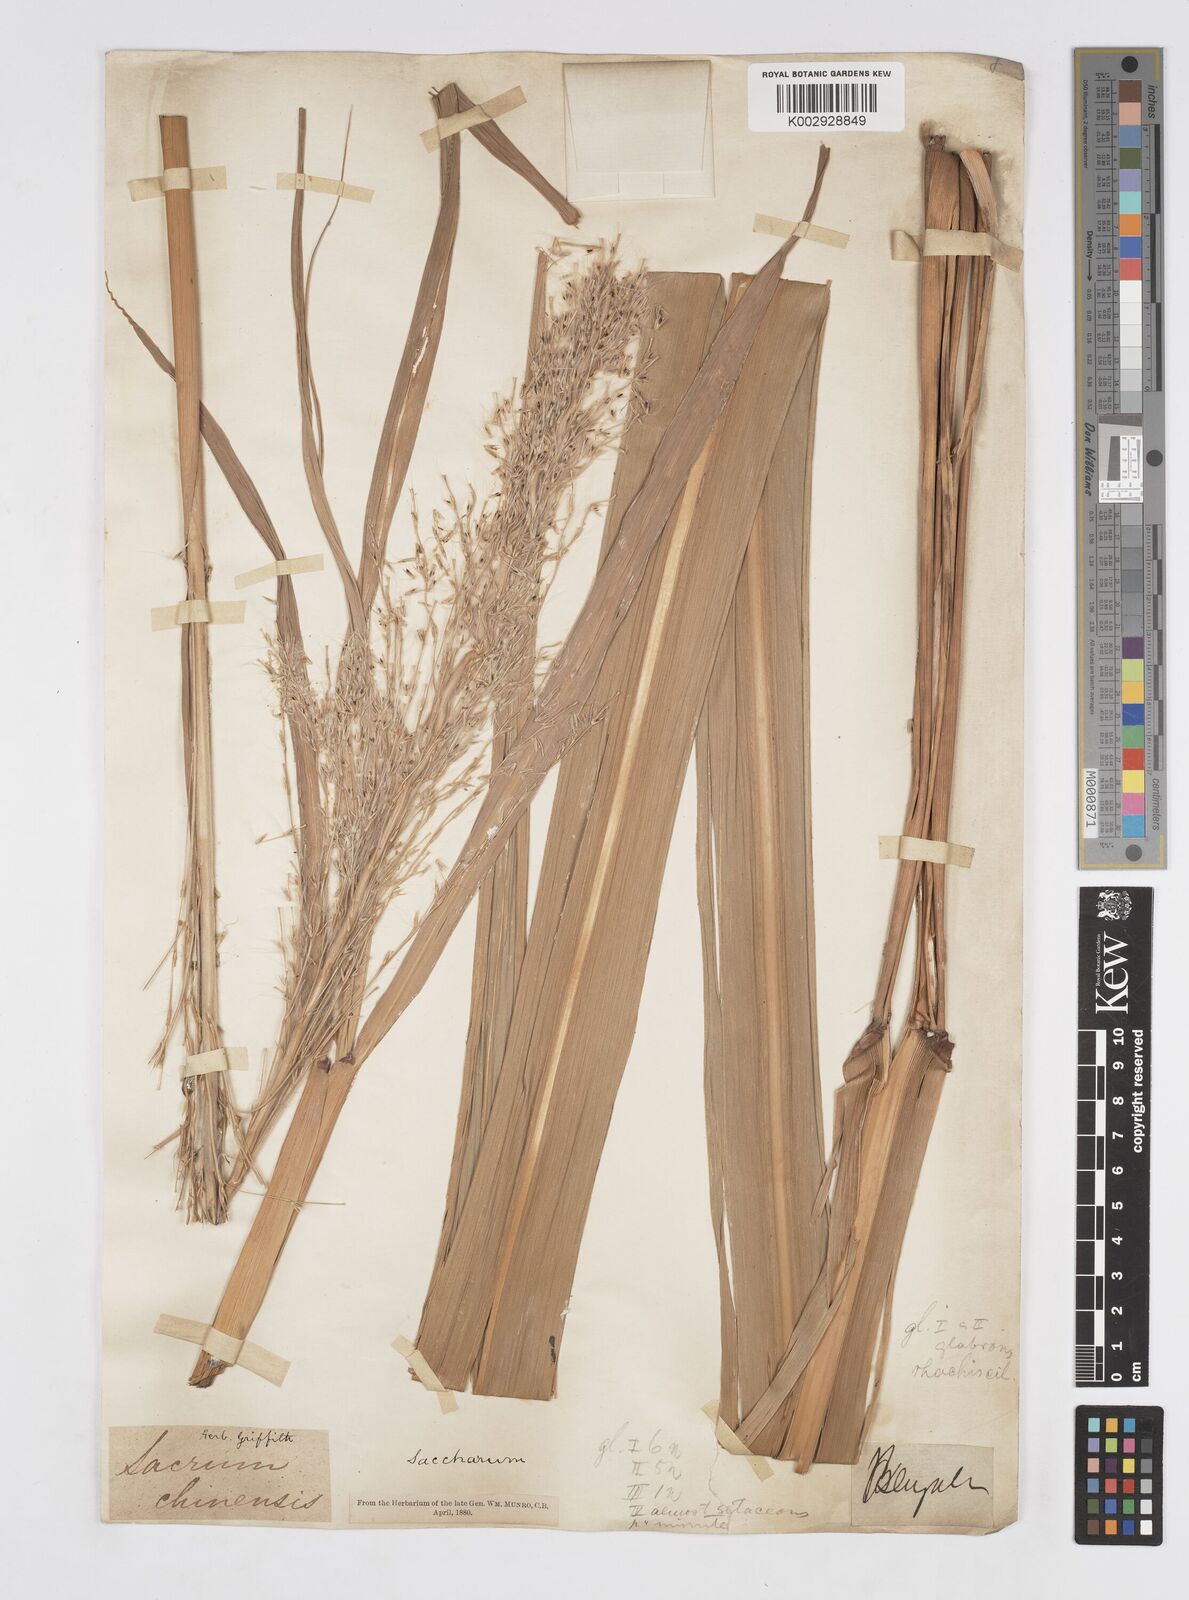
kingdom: Plantae
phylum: Tracheophyta
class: Liliopsida
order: Poales
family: Poaceae
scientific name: Poaceae
